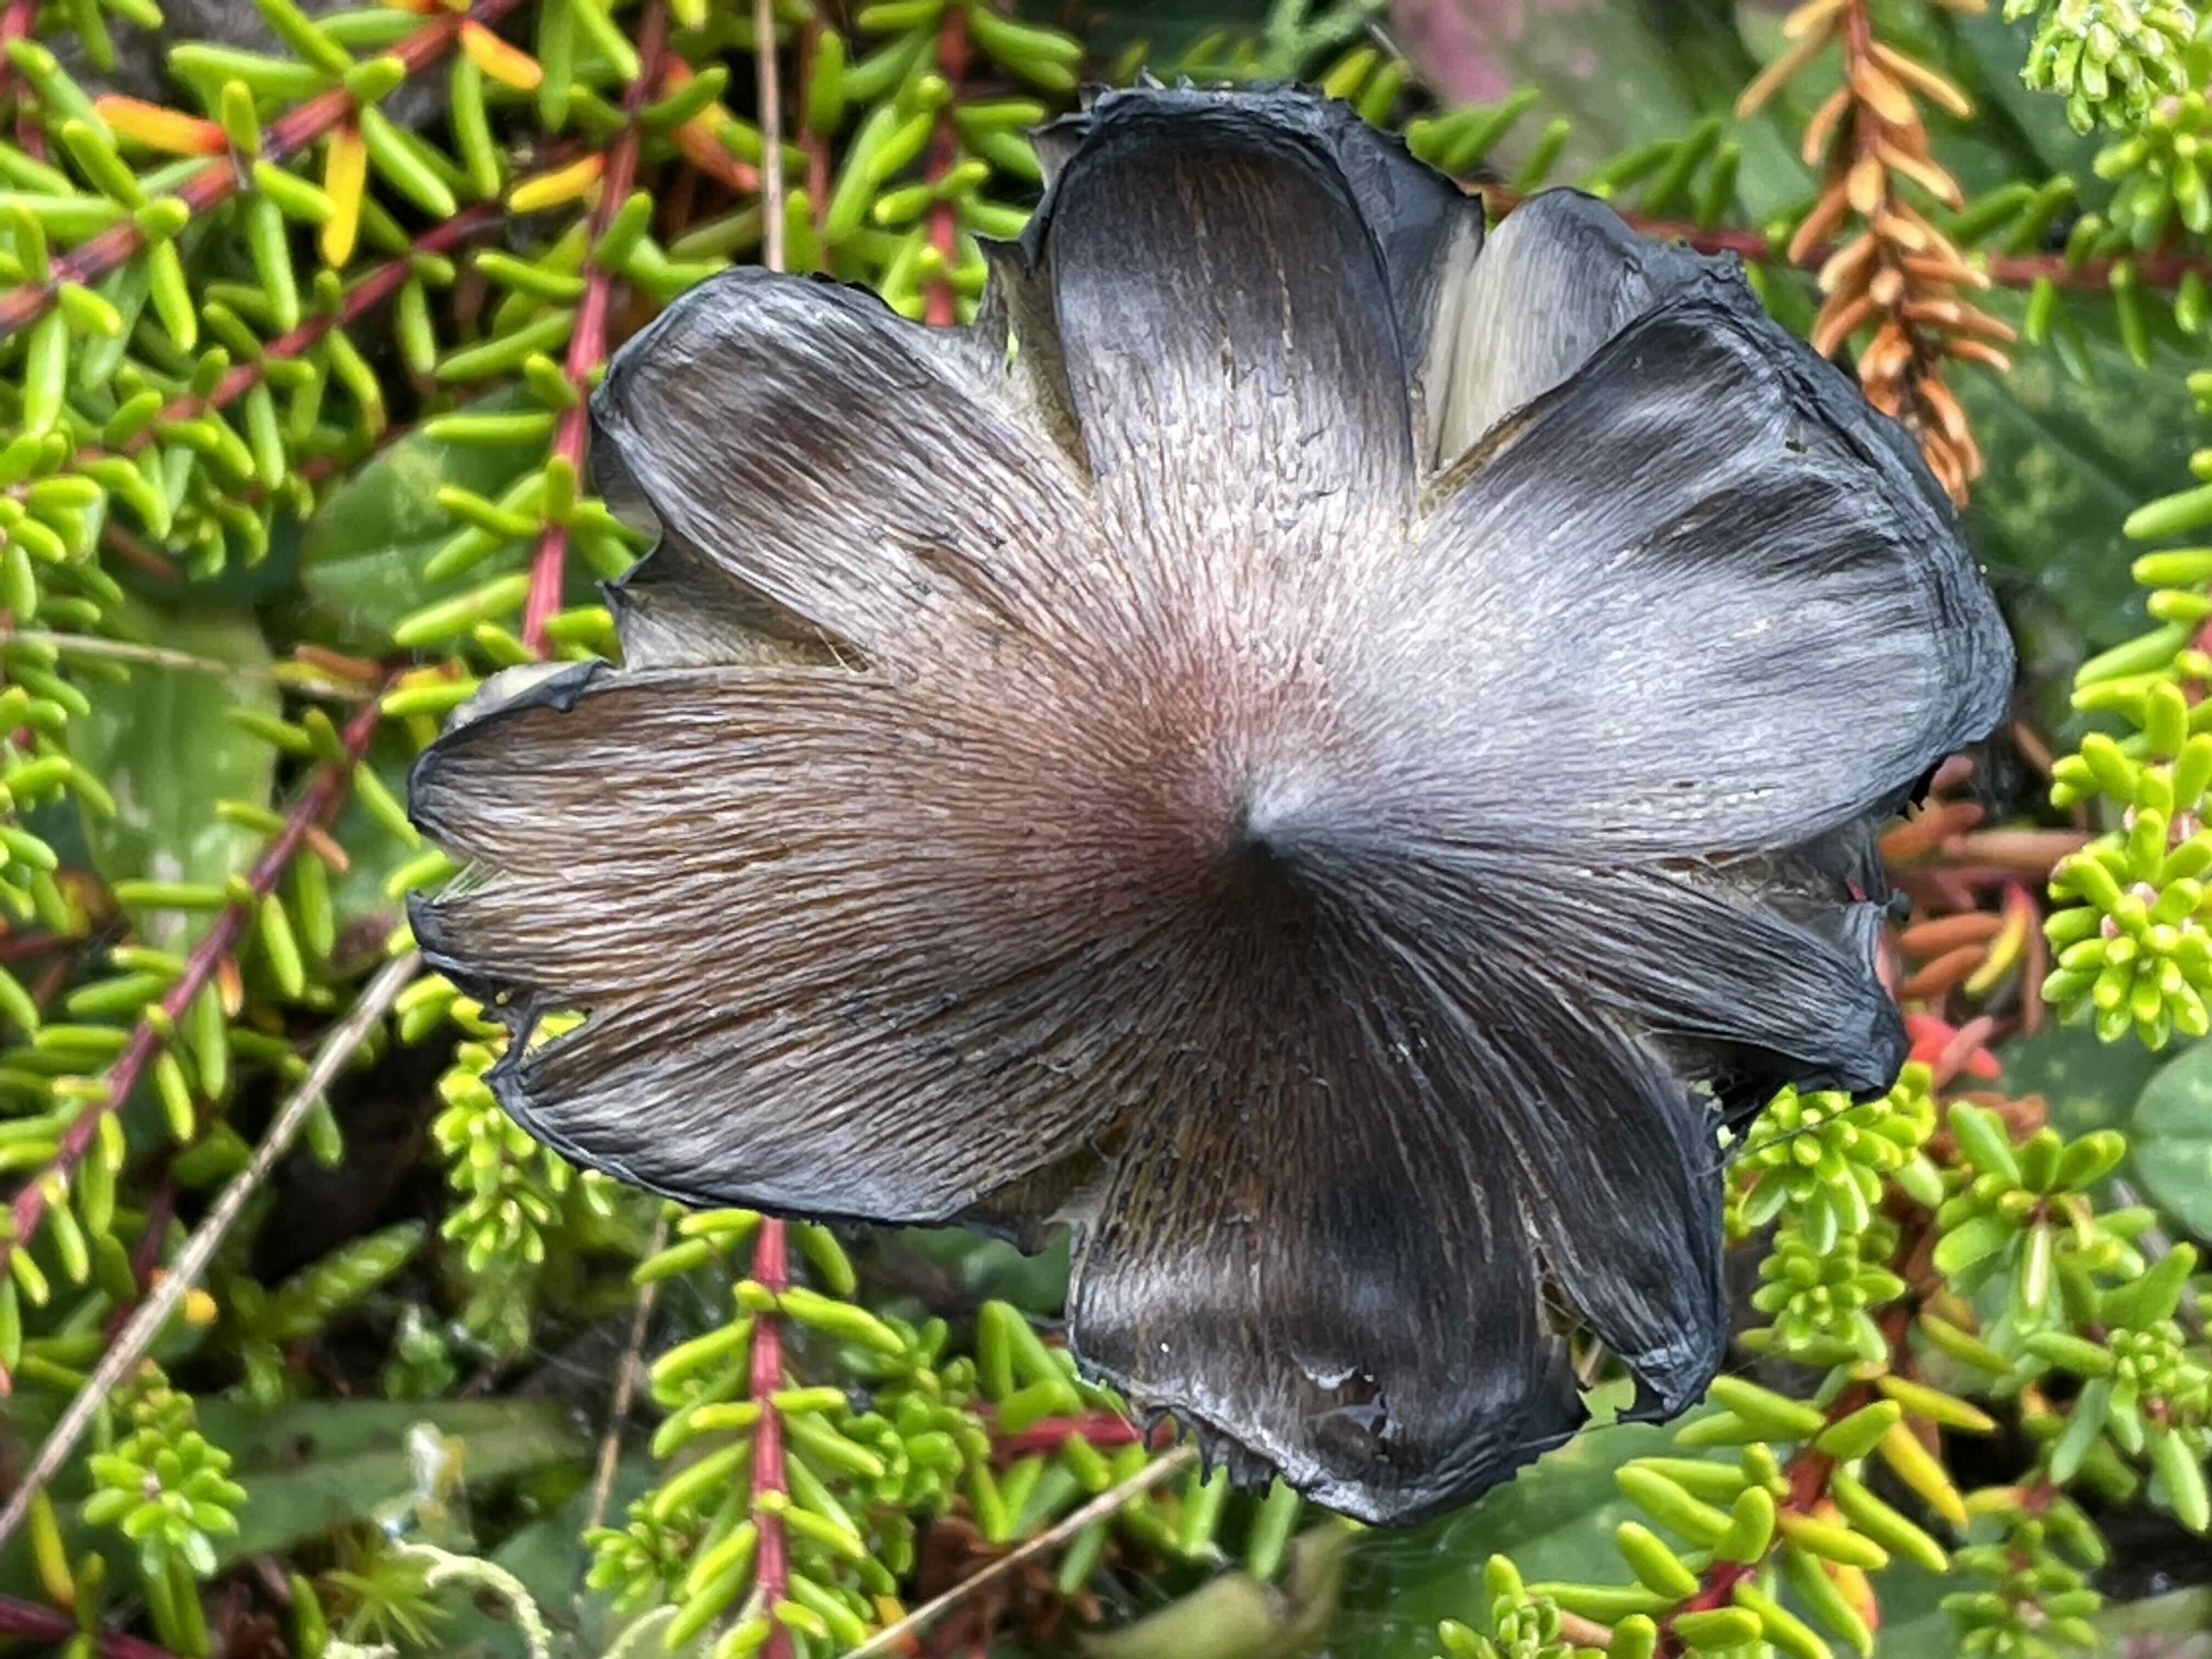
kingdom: Fungi
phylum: Basidiomycota
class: Agaricomycetes
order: Agaricales
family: Hygrophoraceae
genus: Hygrocybe
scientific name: Hygrocybe conica
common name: kegle-vokshat
